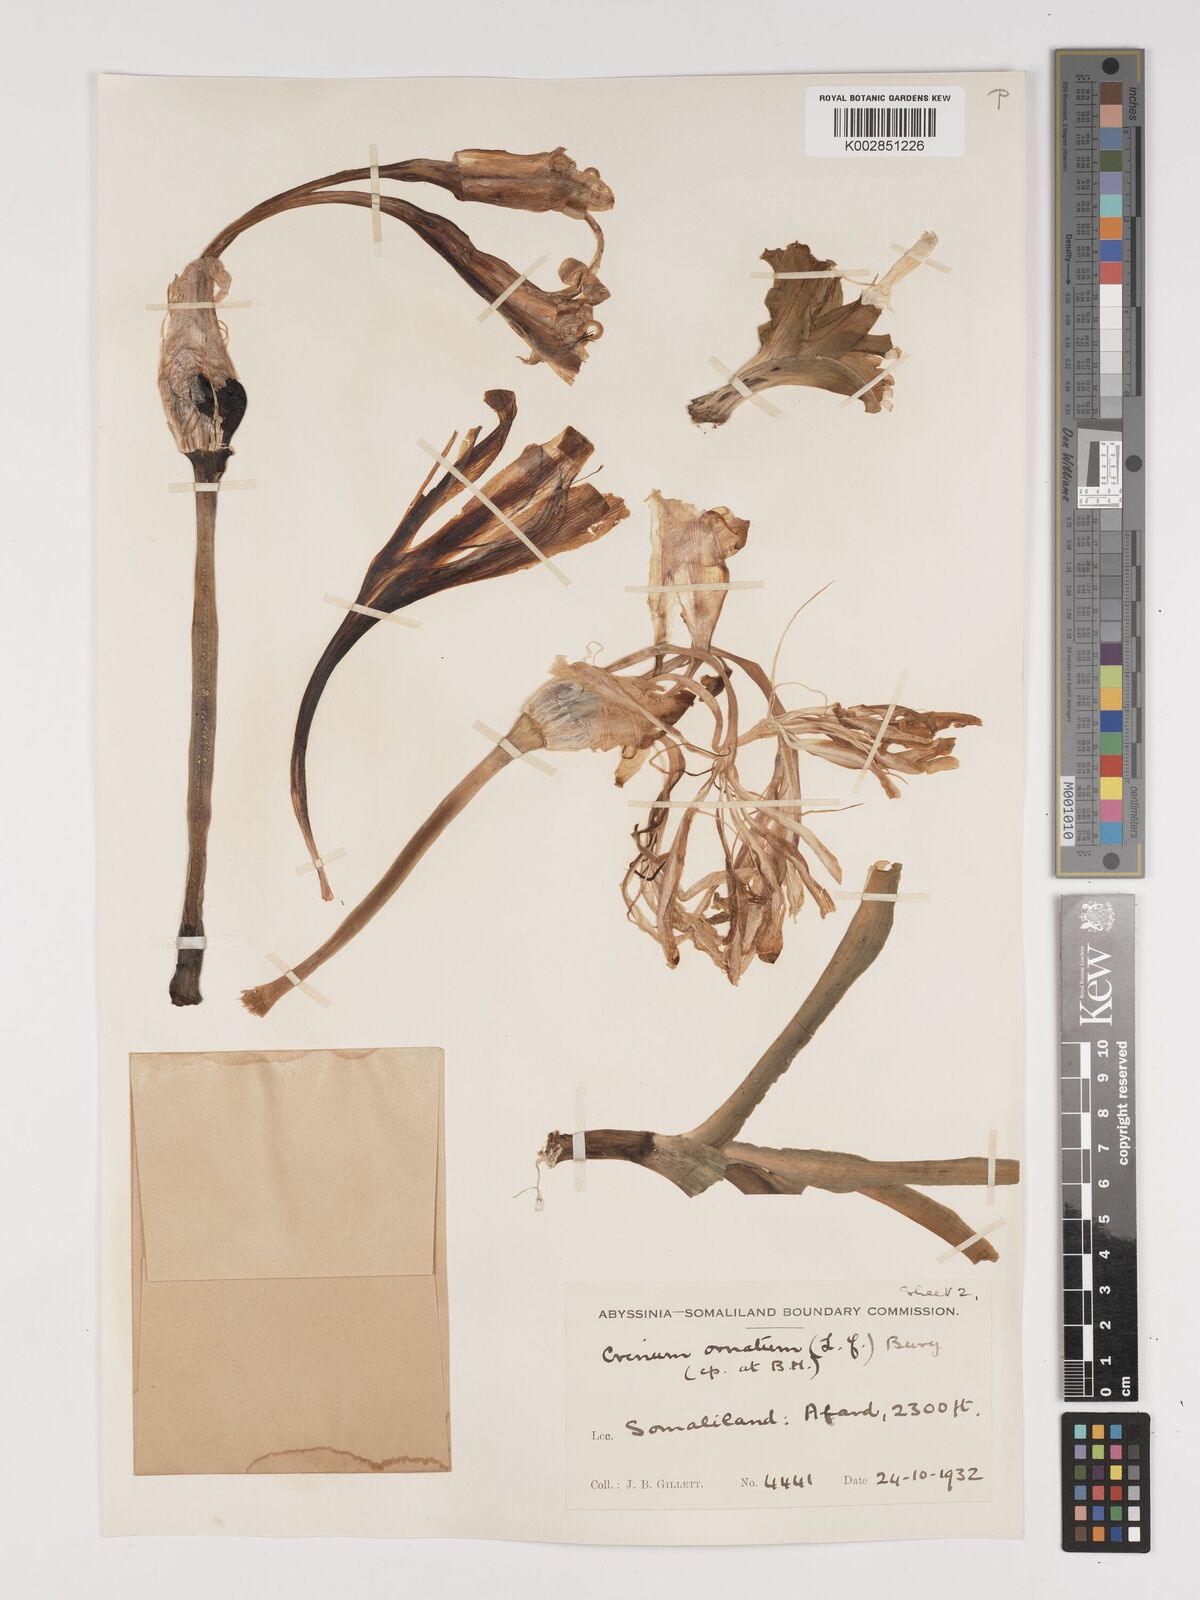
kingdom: Plantae
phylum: Tracheophyta
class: Liliopsida
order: Asparagales
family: Amaryllidaceae
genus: Crinum
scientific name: Crinum abyssinicum
